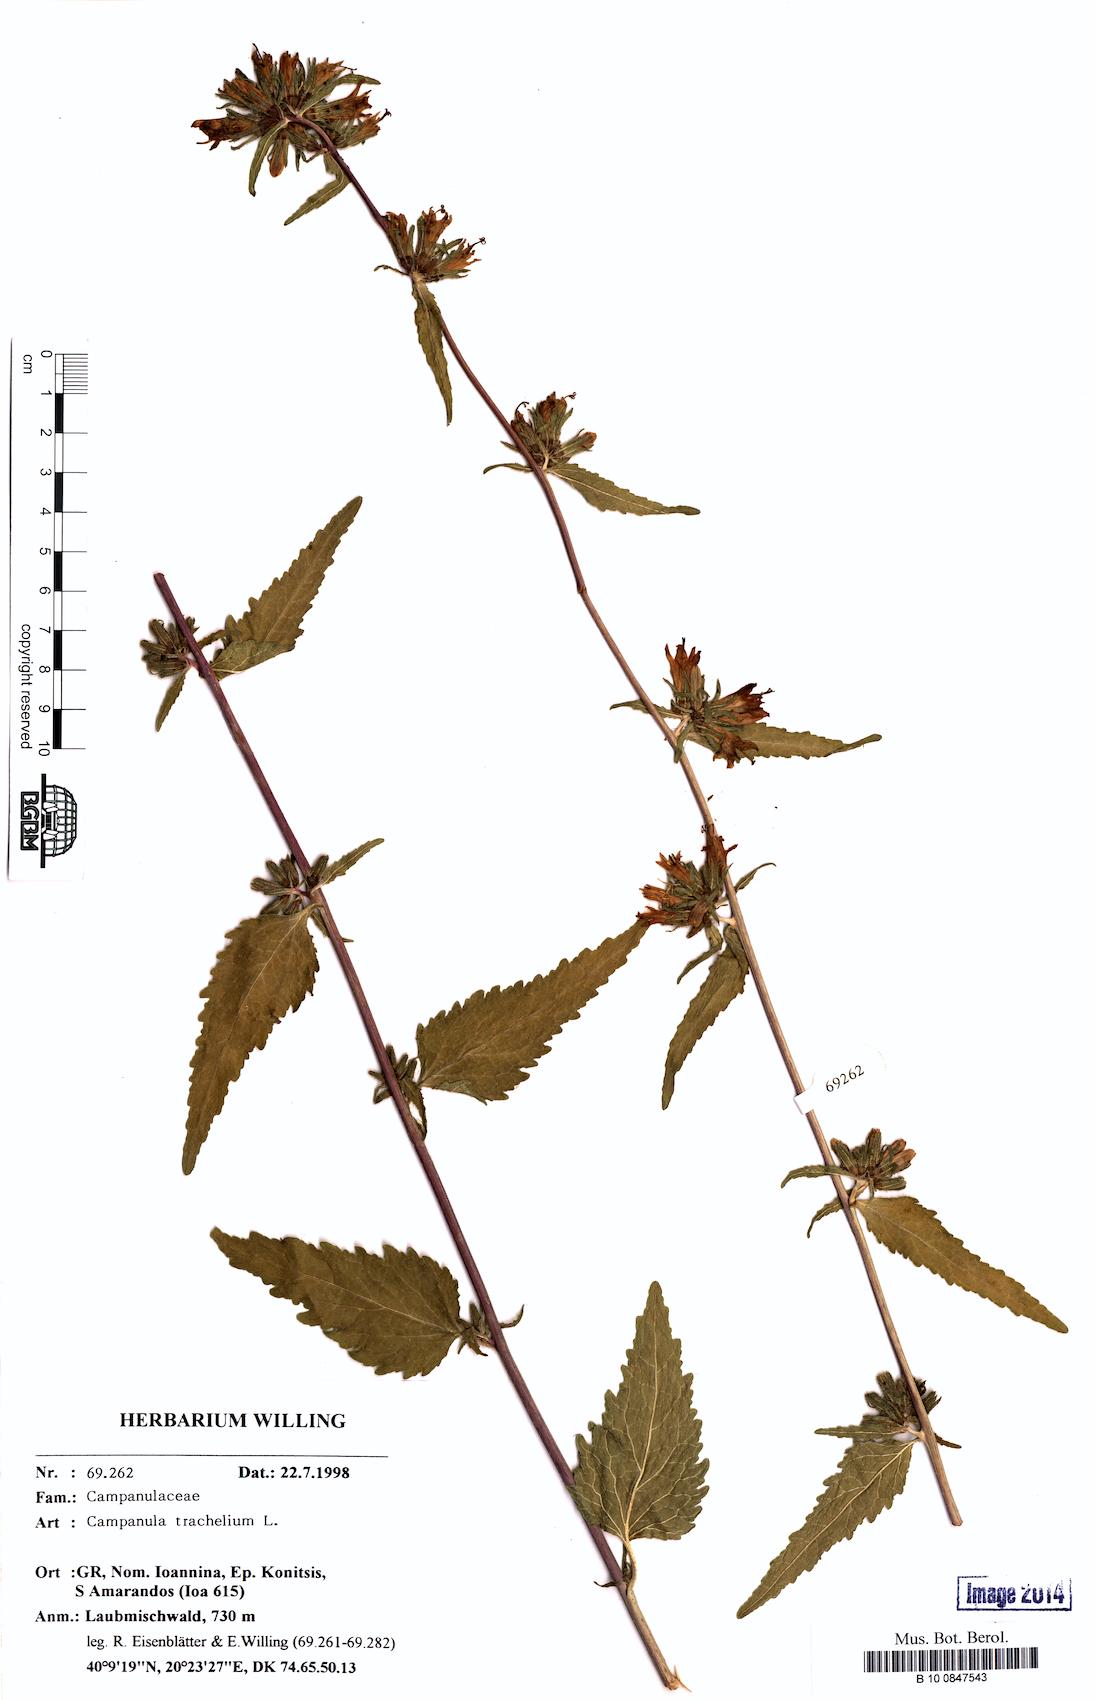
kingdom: Plantae
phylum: Tracheophyta
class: Magnoliopsida
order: Asterales
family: Campanulaceae
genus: Campanula
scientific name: Campanula trachelium
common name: Nettle-leaved bellflower
